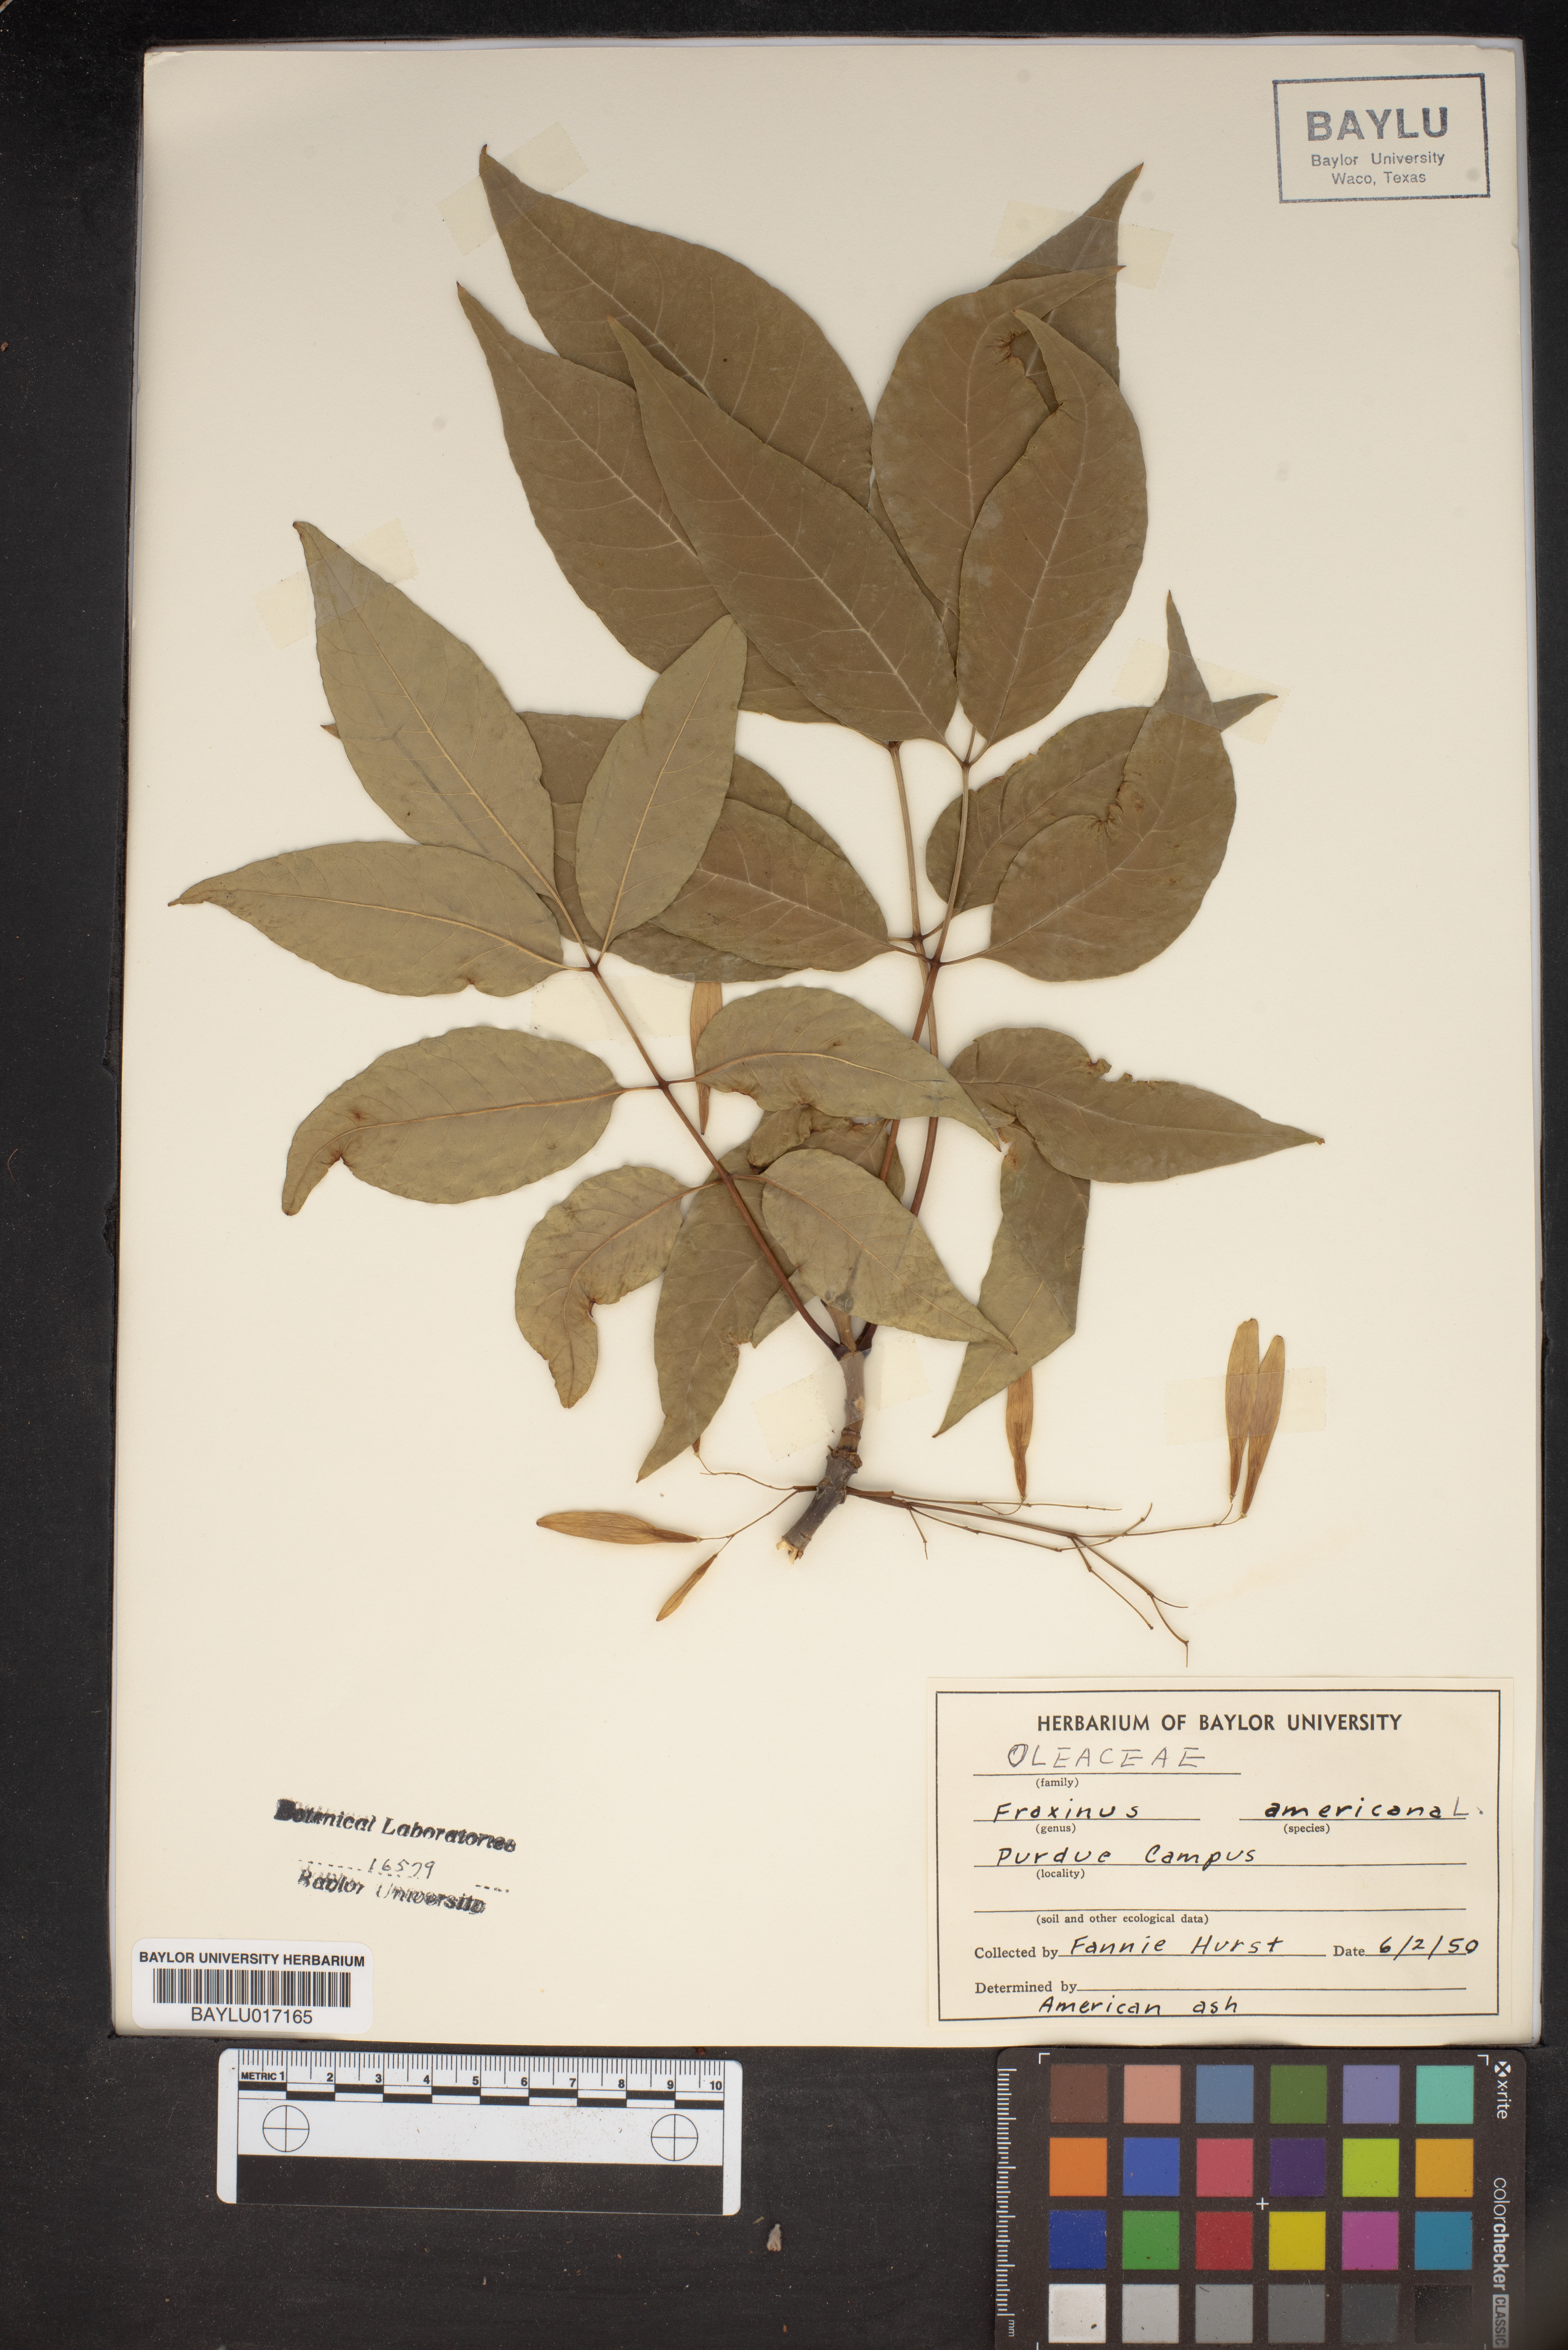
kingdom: Plantae
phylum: Tracheophyta
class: Magnoliopsida
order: Lamiales
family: Oleaceae
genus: Fraxinus
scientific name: Fraxinus americana
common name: White ash
